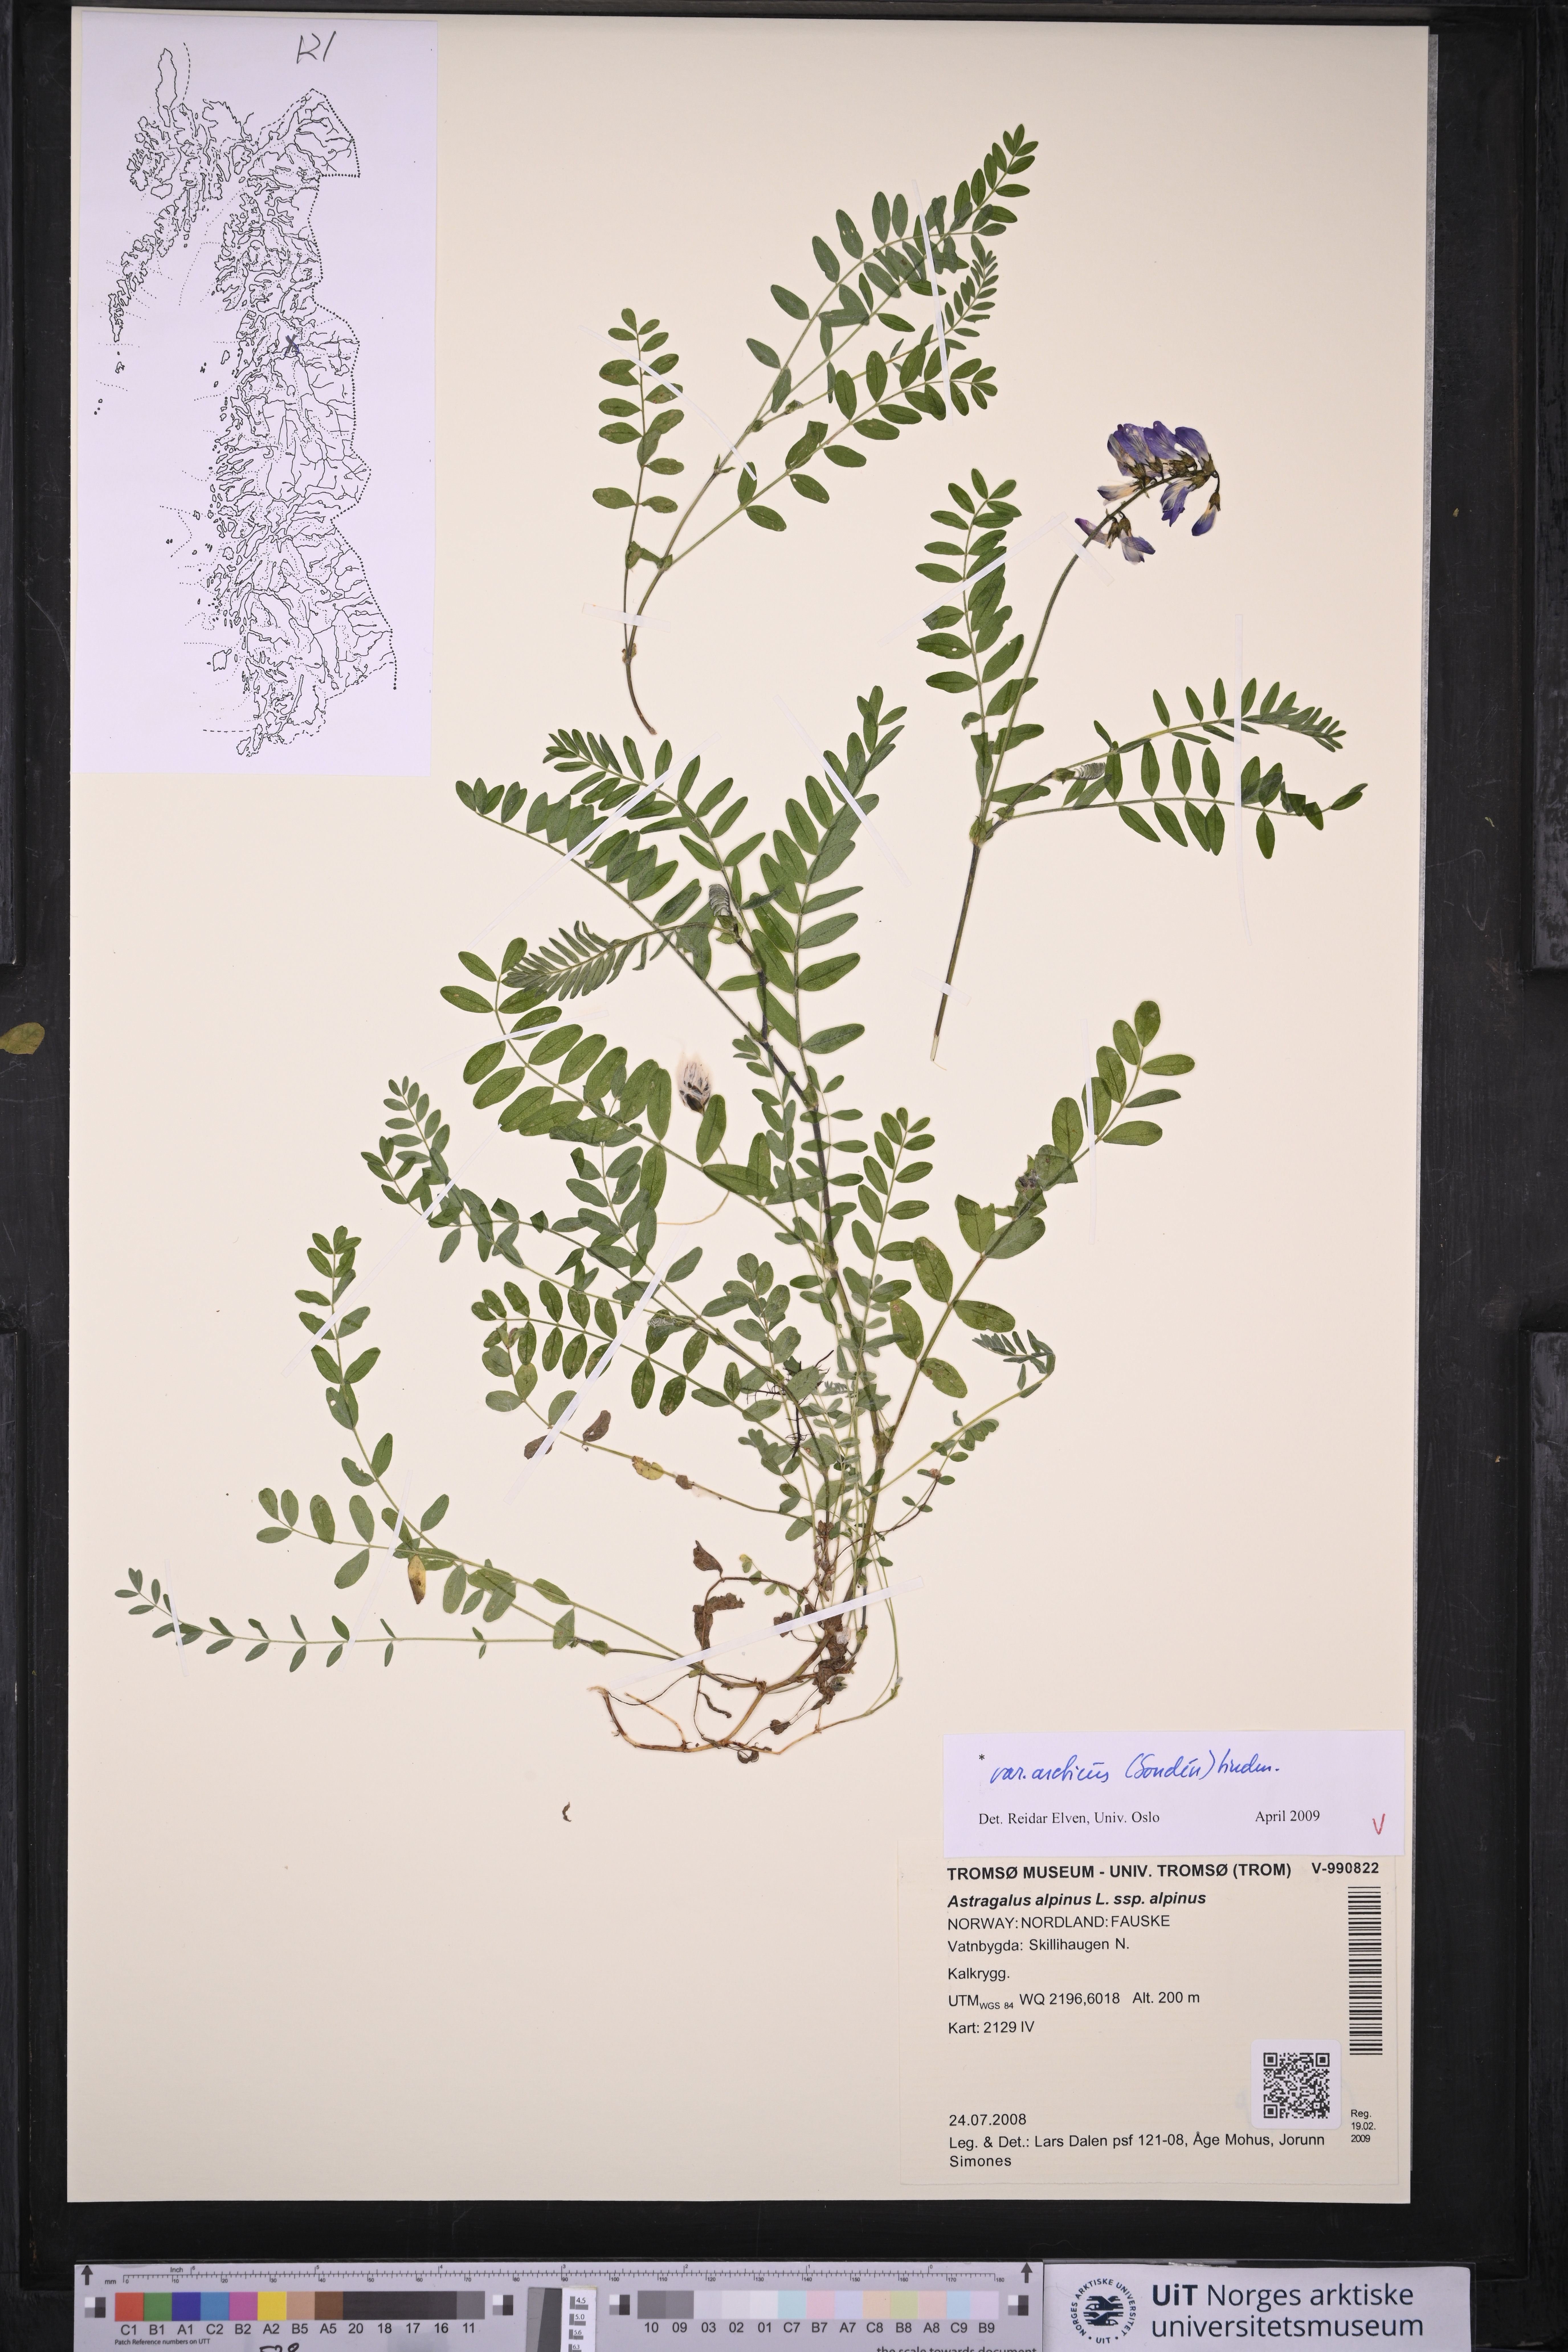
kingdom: Plantae
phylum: Tracheophyta
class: Magnoliopsida
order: Fabales
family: Fabaceae
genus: Astragalus
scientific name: Astragalus norvegicus
